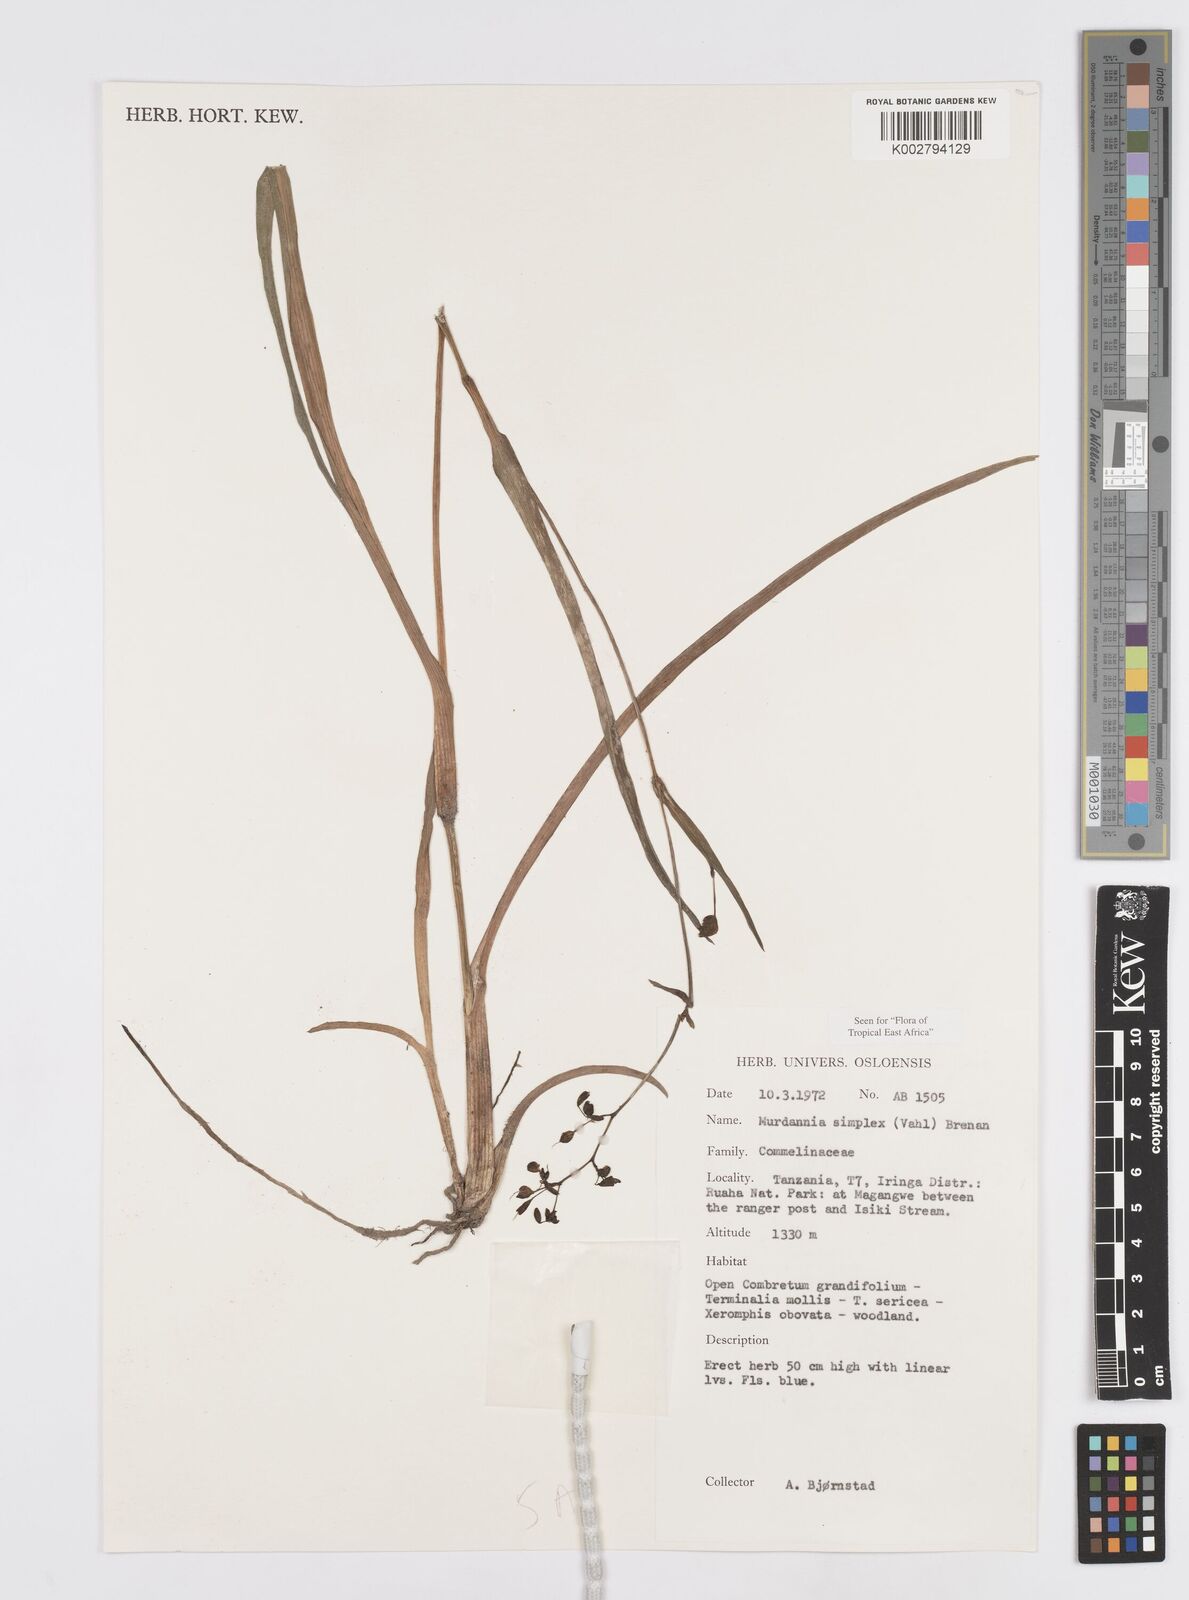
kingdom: Plantae
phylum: Tracheophyta
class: Liliopsida
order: Commelinales
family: Commelinaceae
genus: Murdannia
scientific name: Murdannia simplex
